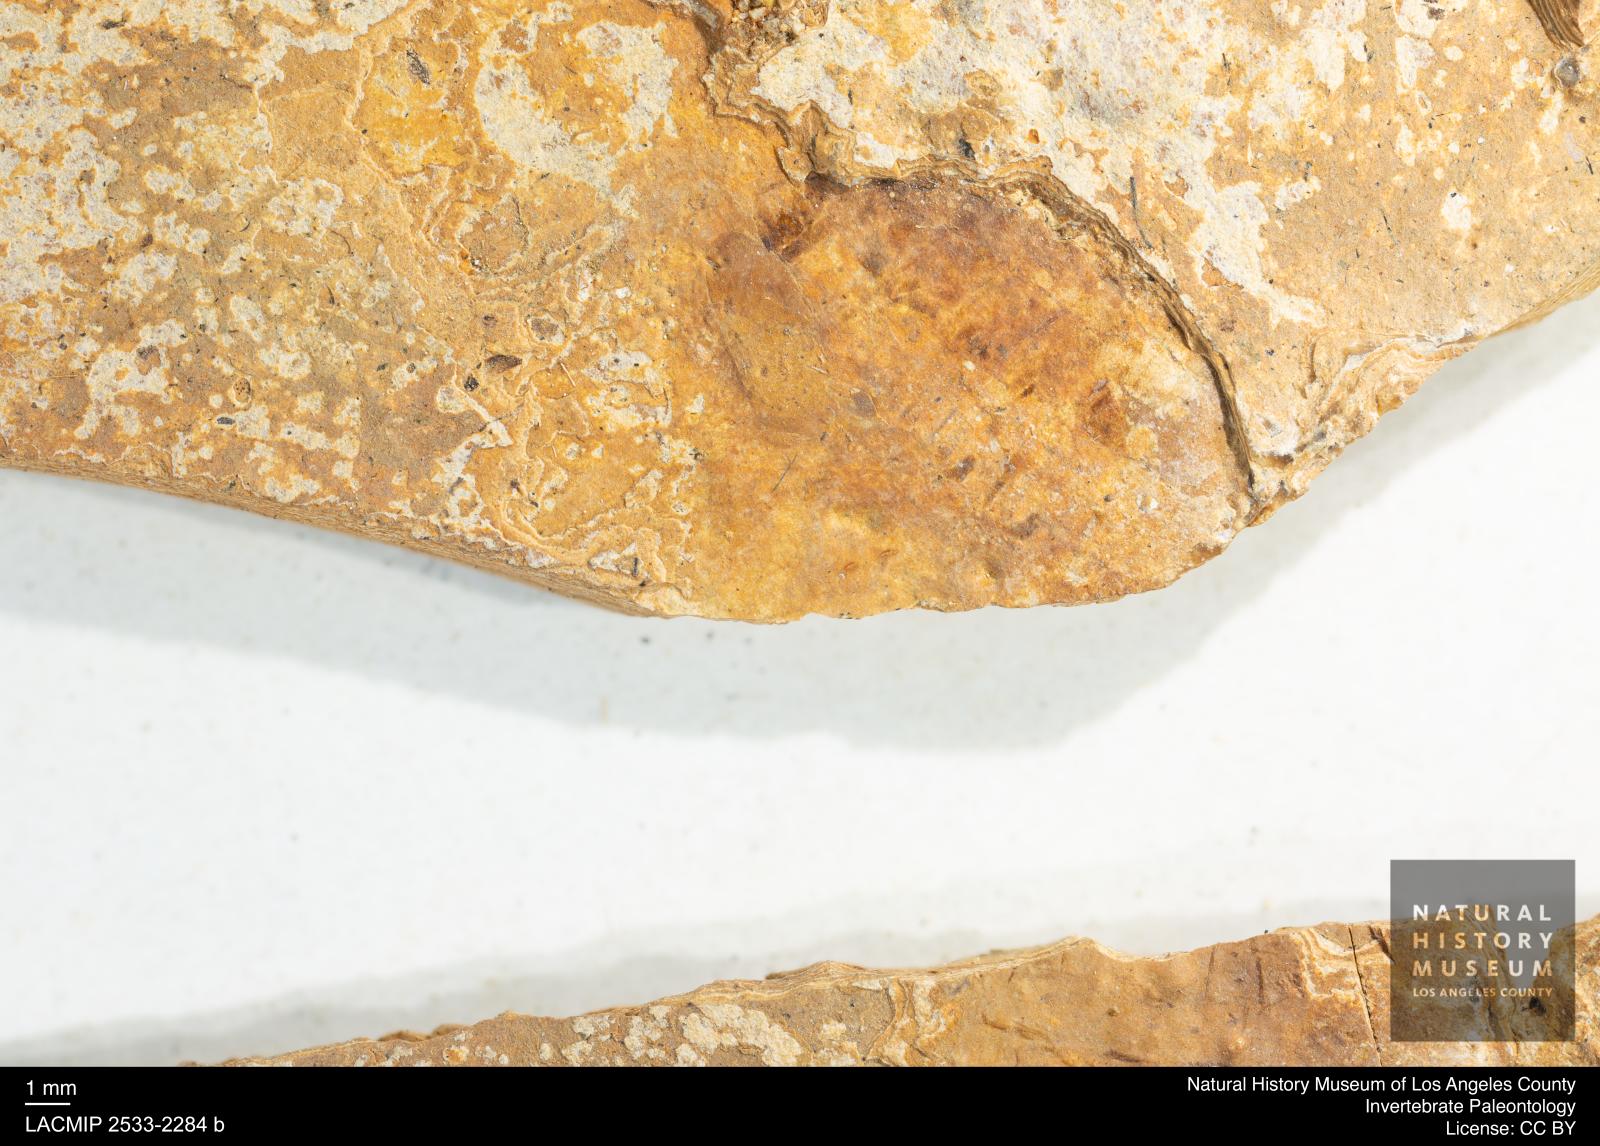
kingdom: Animalia
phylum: Arthropoda
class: Insecta
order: Diptera
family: Stratiomyidae
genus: Stratiomyia
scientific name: Stratiomyia
